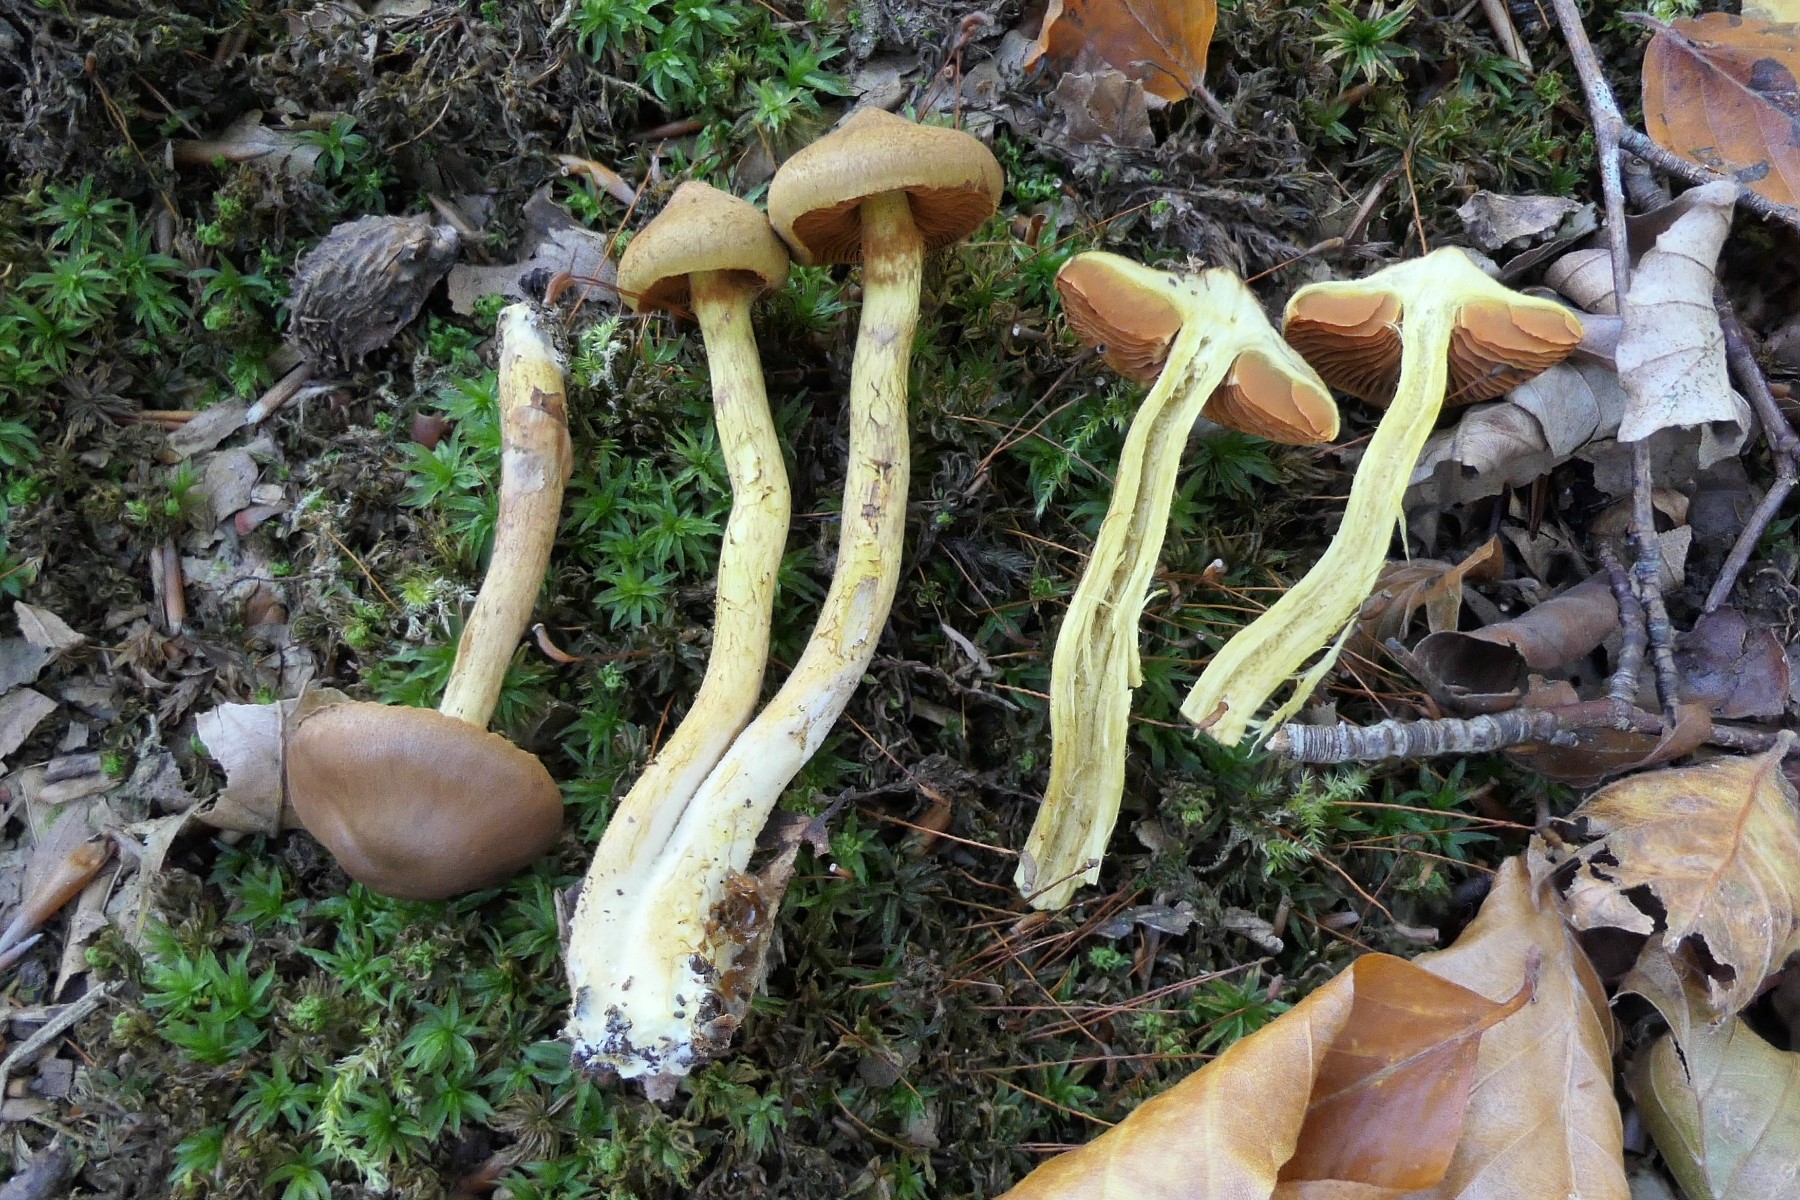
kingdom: Fungi
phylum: Basidiomycota
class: Agaricomycetes
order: Agaricales
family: Cortinariaceae
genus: Cortinarius
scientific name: Cortinarius malicorius
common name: grønkødet slørhat
